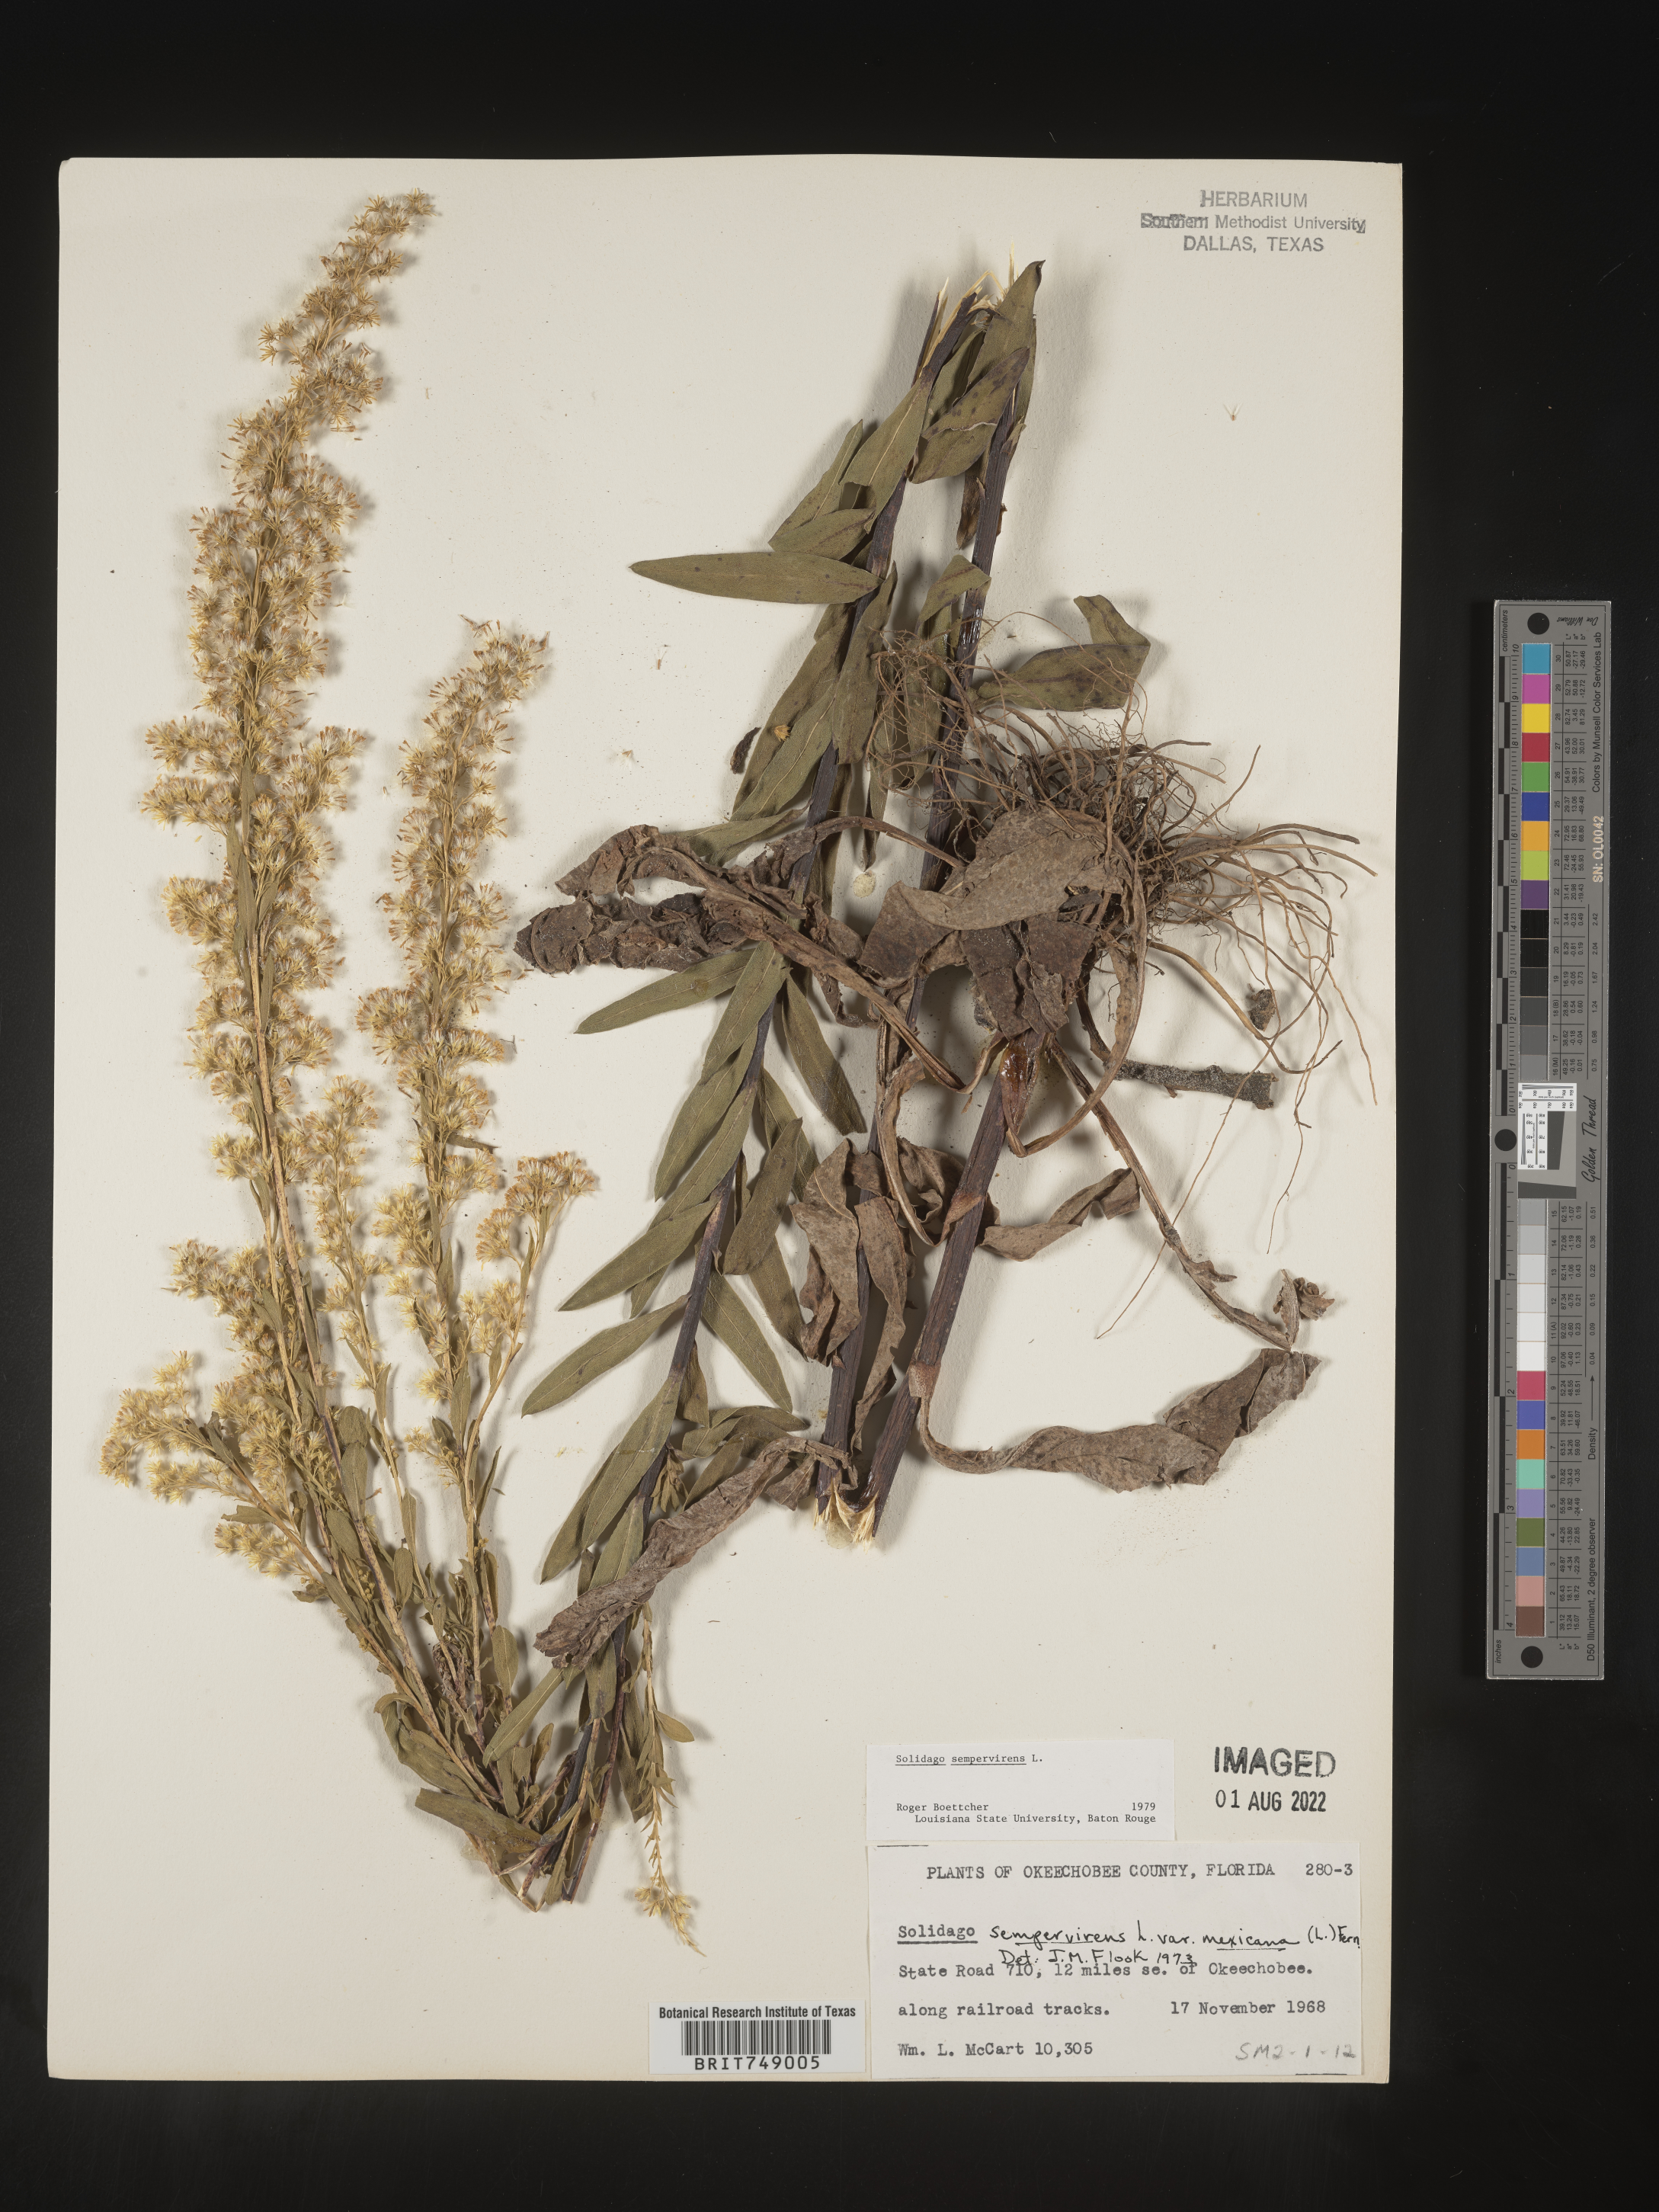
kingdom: Plantae
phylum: Tracheophyta
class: Magnoliopsida
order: Asterales
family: Asteraceae
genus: Solidago
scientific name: Solidago sempervirens
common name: Salt-marsh goldenrod
